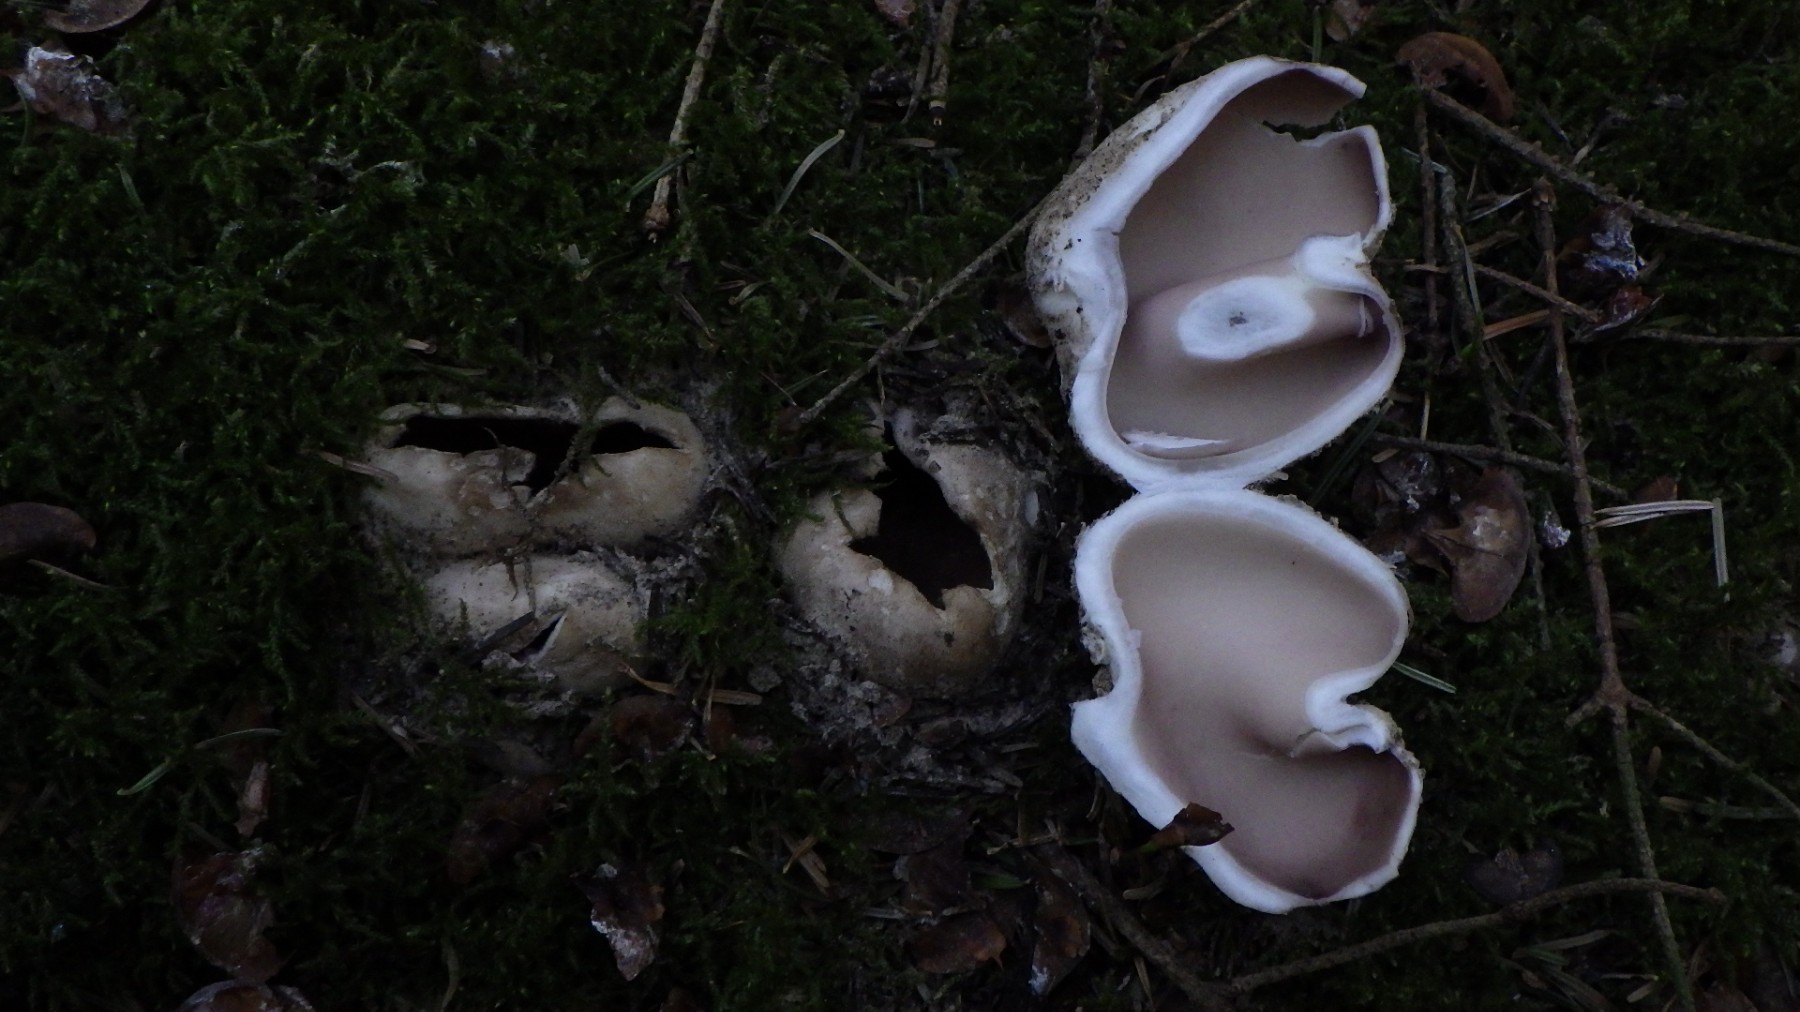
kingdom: Fungi
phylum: Ascomycota
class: Pezizomycetes
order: Pezizales
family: Pezizaceae
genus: Sarcosphaera
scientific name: Sarcosphaera coronaria
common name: stjernebæger
